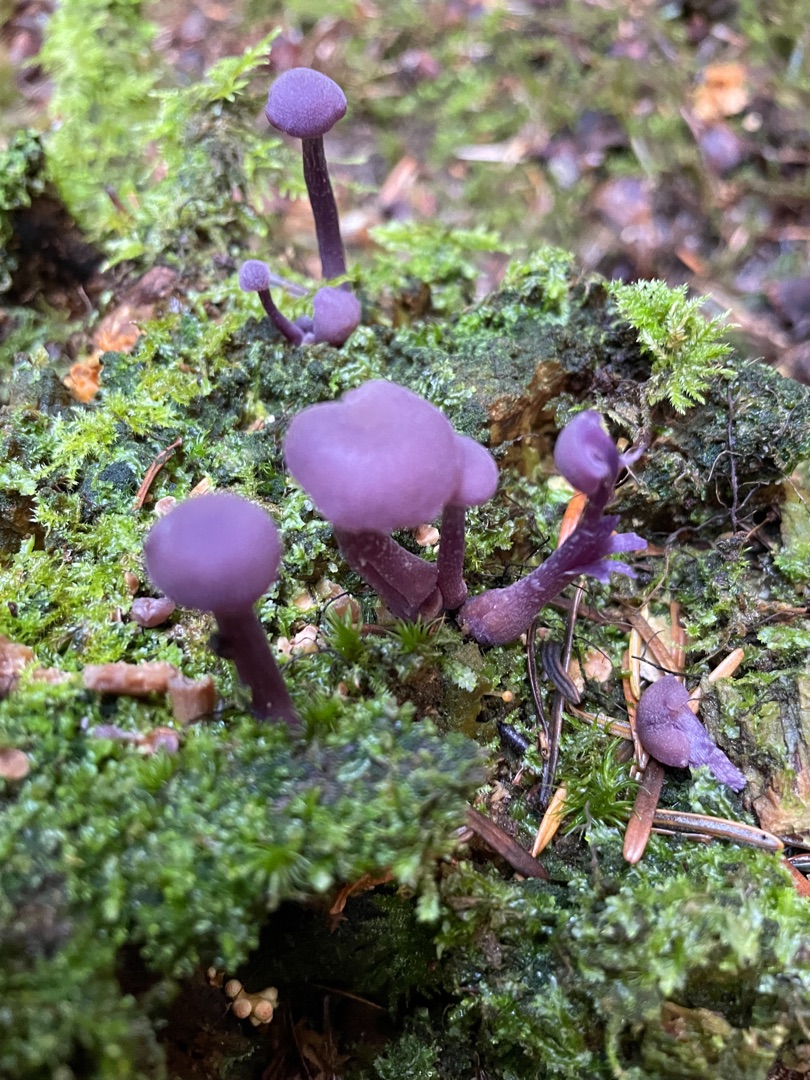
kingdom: Fungi
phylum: Basidiomycota
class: Agaricomycetes
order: Agaricales
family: Hydnangiaceae
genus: Laccaria
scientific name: Laccaria amethystina
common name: Violet ametysthat
